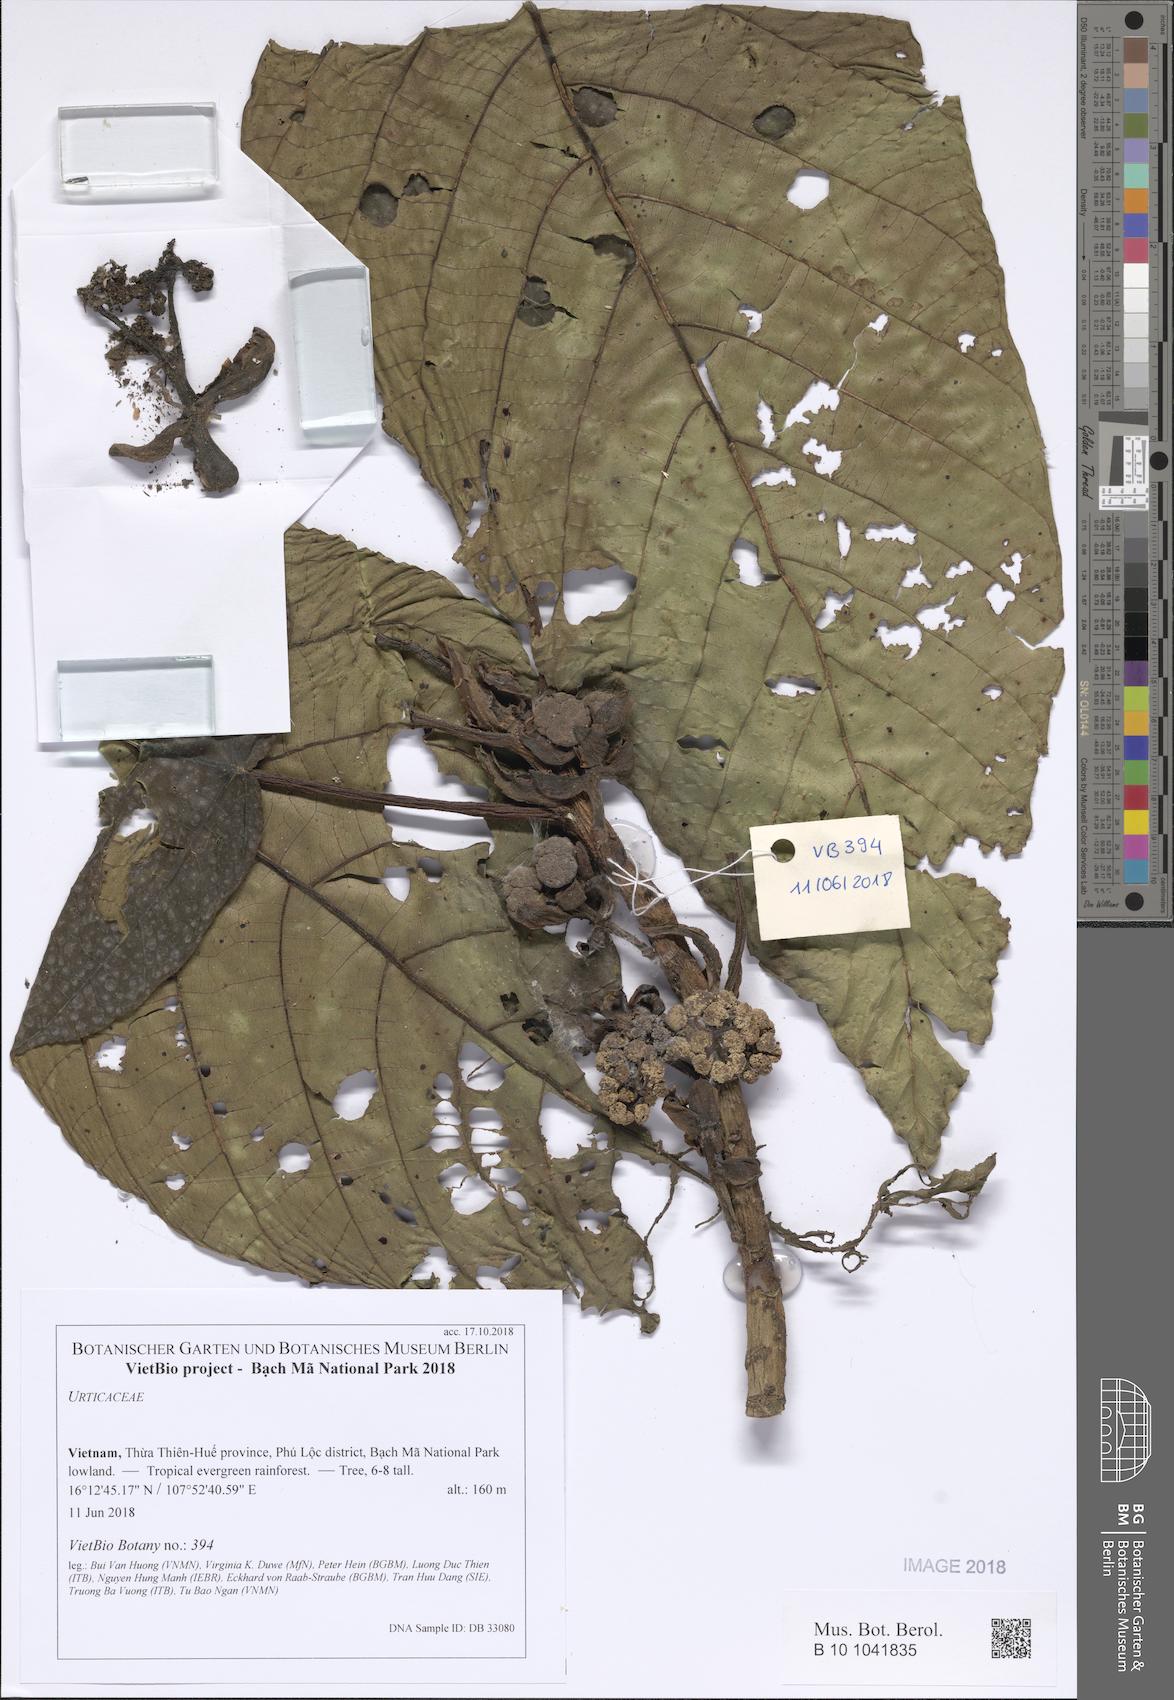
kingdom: Plantae
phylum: Tracheophyta
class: Magnoliopsida
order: Rosales
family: Urticaceae
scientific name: Urticaceae
